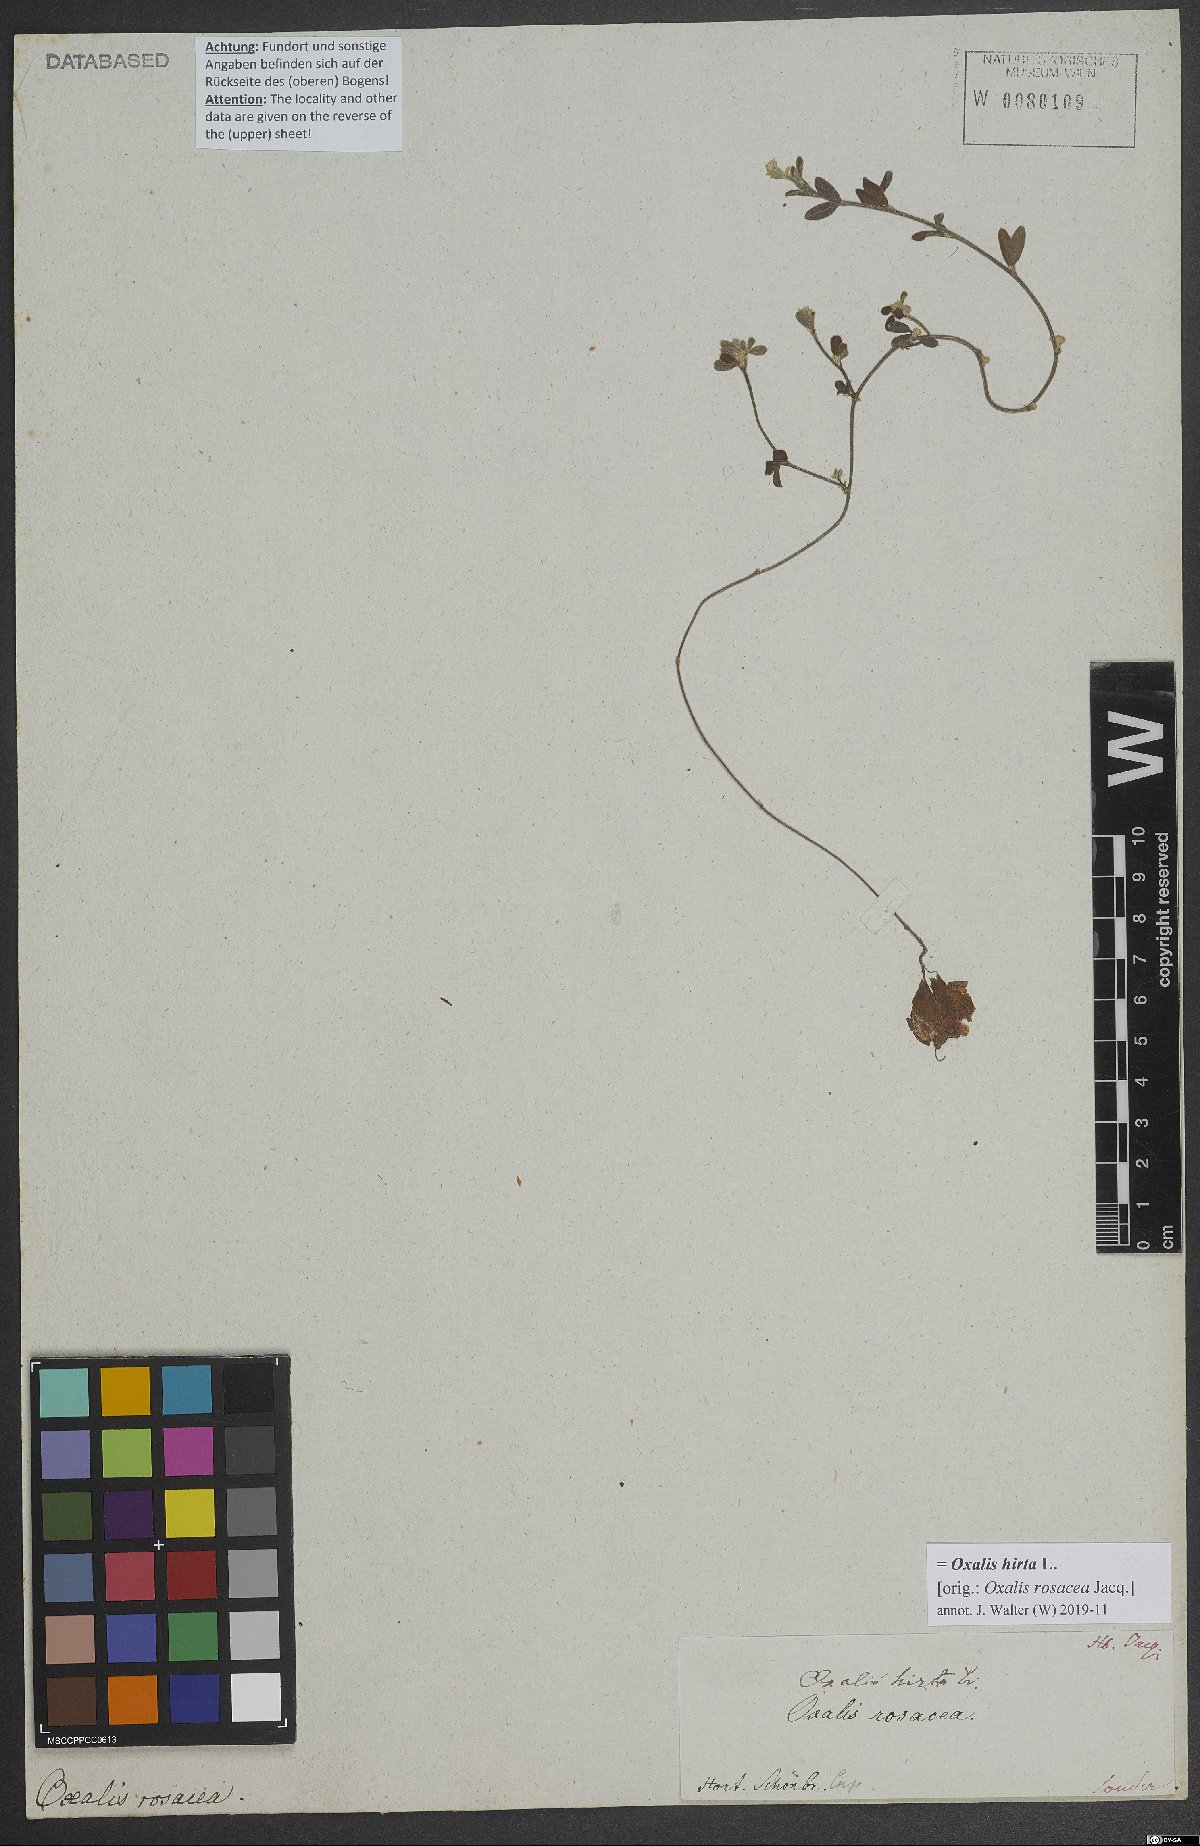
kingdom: Plantae
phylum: Tracheophyta
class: Magnoliopsida
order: Oxalidales
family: Oxalidaceae
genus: Oxalis
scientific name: Oxalis hirta
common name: Tropical woodsorrel
